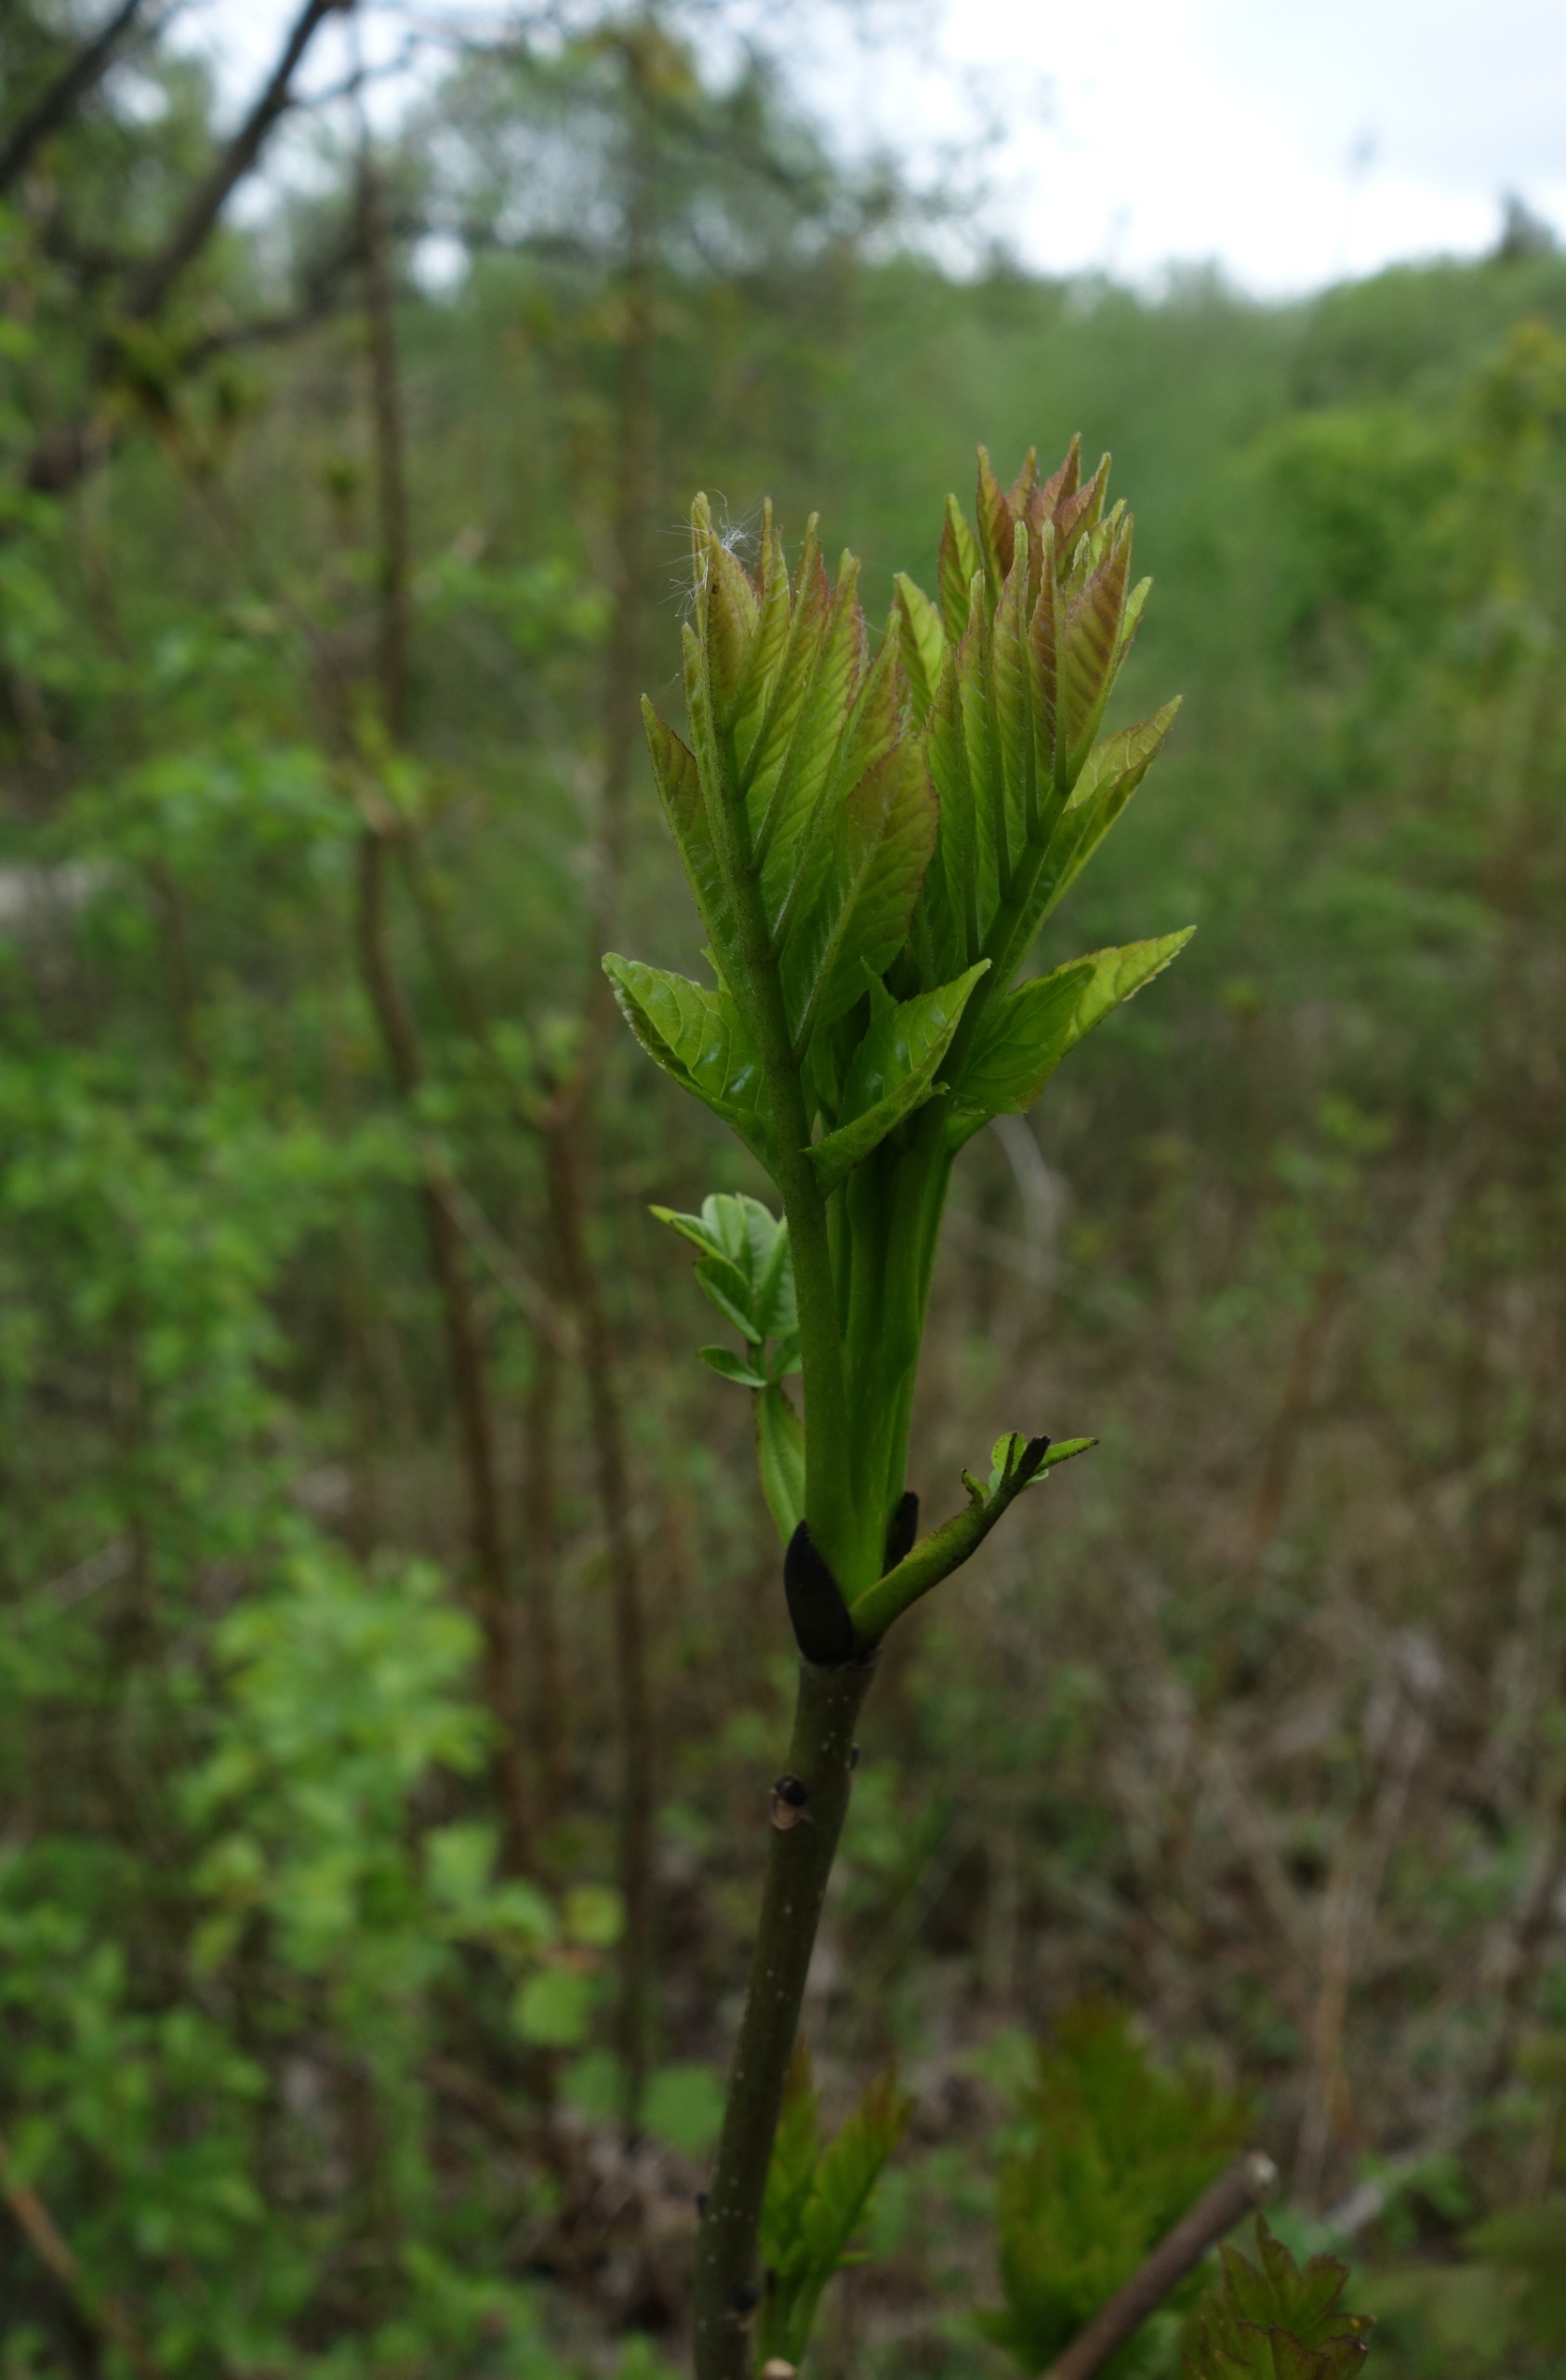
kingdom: Plantae
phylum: Tracheophyta
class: Magnoliopsida
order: Lamiales
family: Oleaceae
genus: Fraxinus
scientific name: Fraxinus excelsior
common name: Ask
